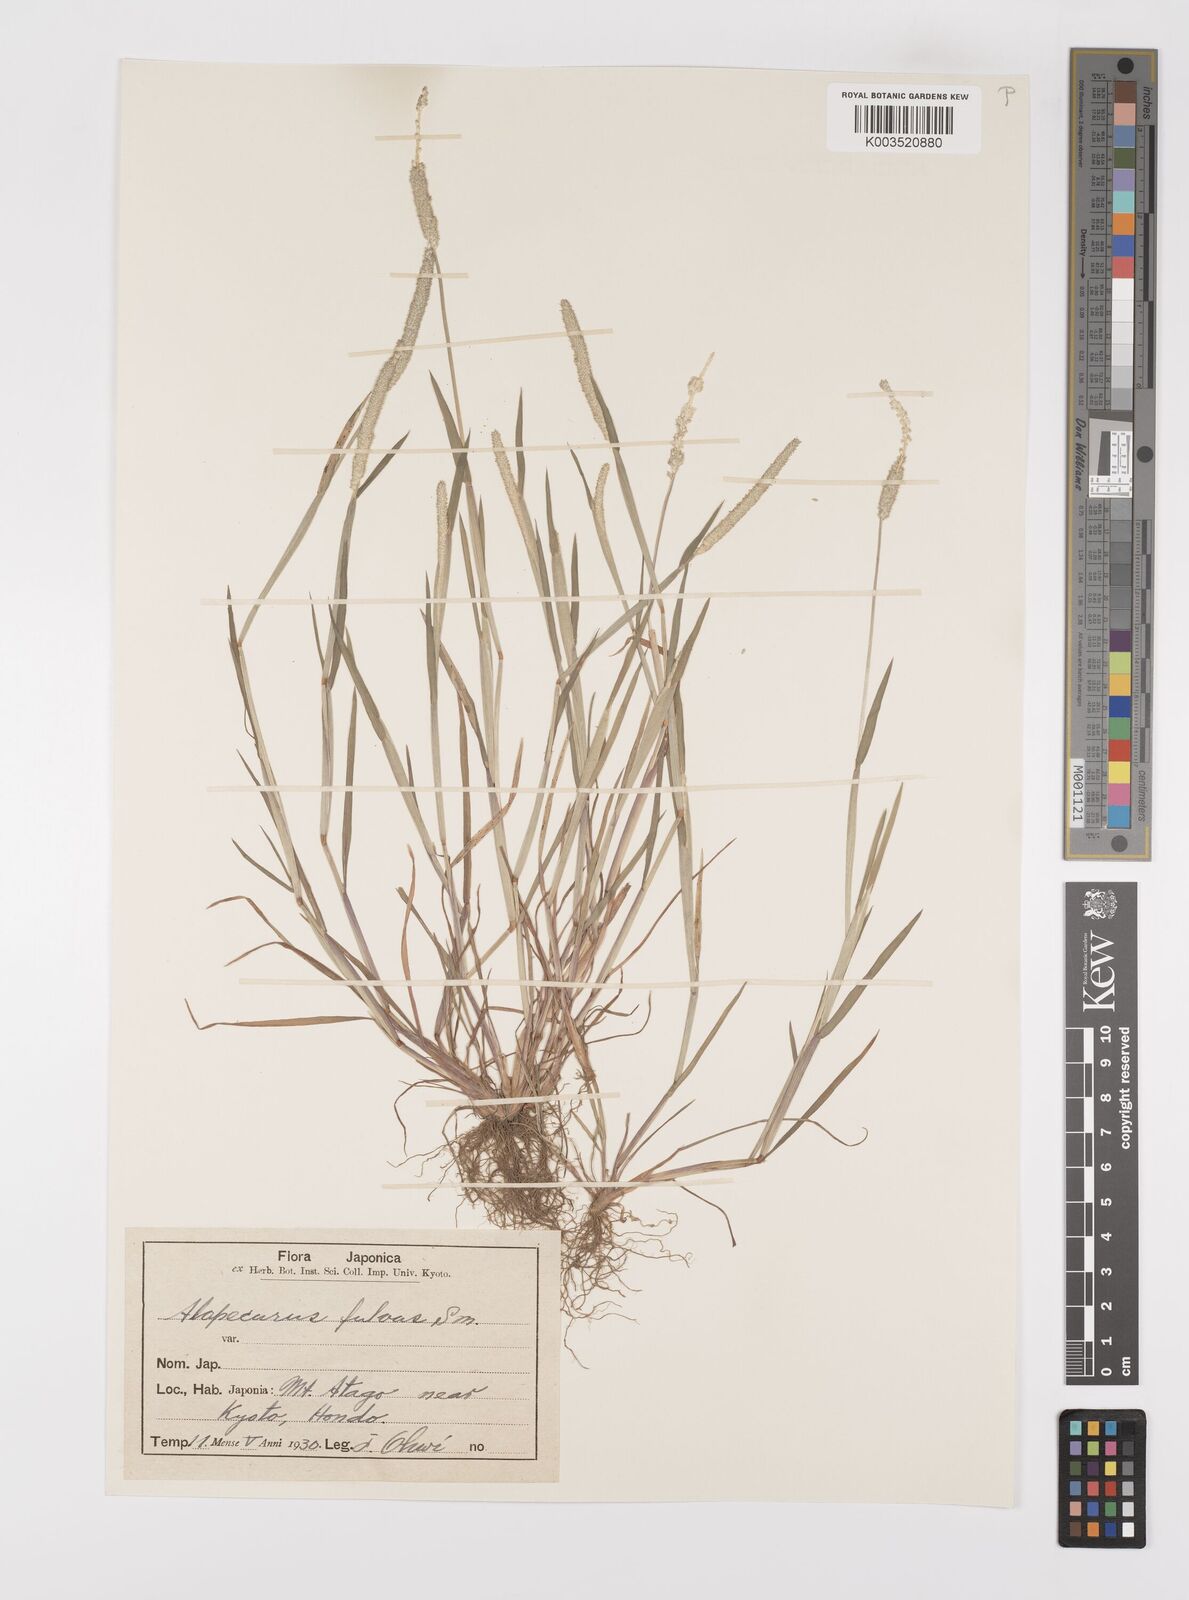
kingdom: Plantae
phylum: Tracheophyta
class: Liliopsida
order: Poales
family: Poaceae
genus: Alopecurus
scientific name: Alopecurus aequalis
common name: Orange foxtail
